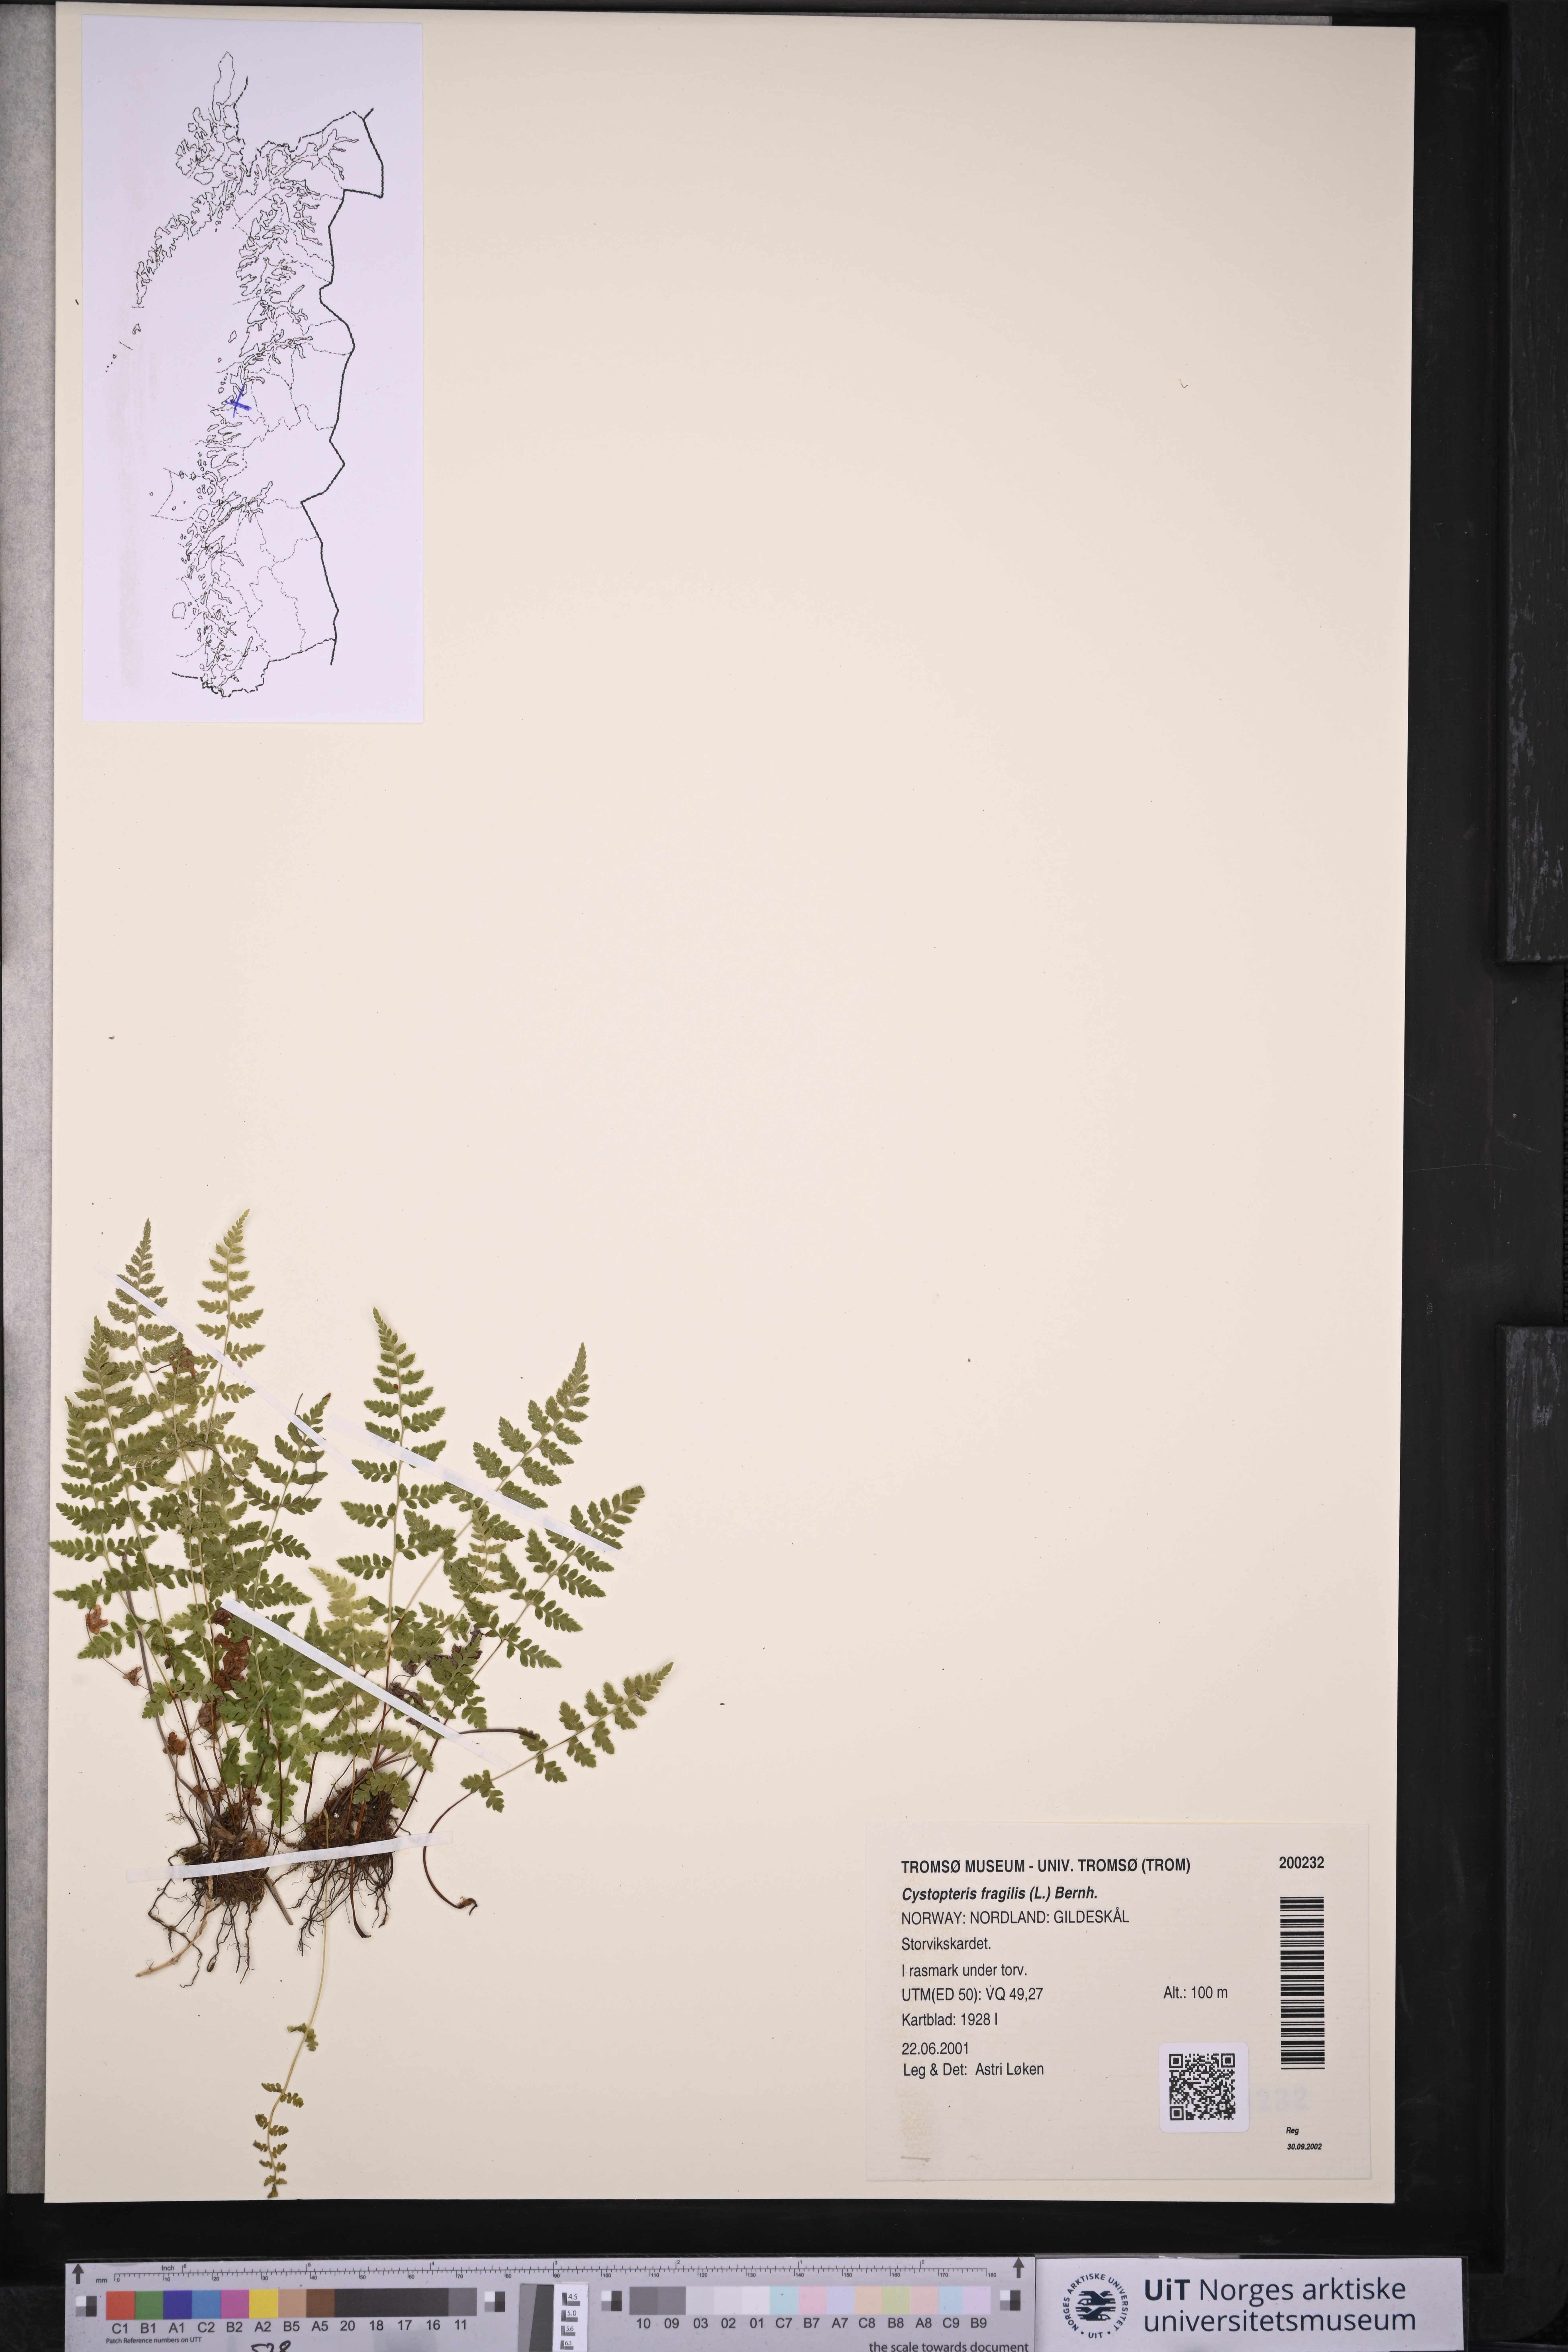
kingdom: Plantae
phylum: Tracheophyta
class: Polypodiopsida
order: Polypodiales
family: Cystopteridaceae
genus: Cystopteris
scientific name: Cystopteris fragilis
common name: Brittle bladder fern
